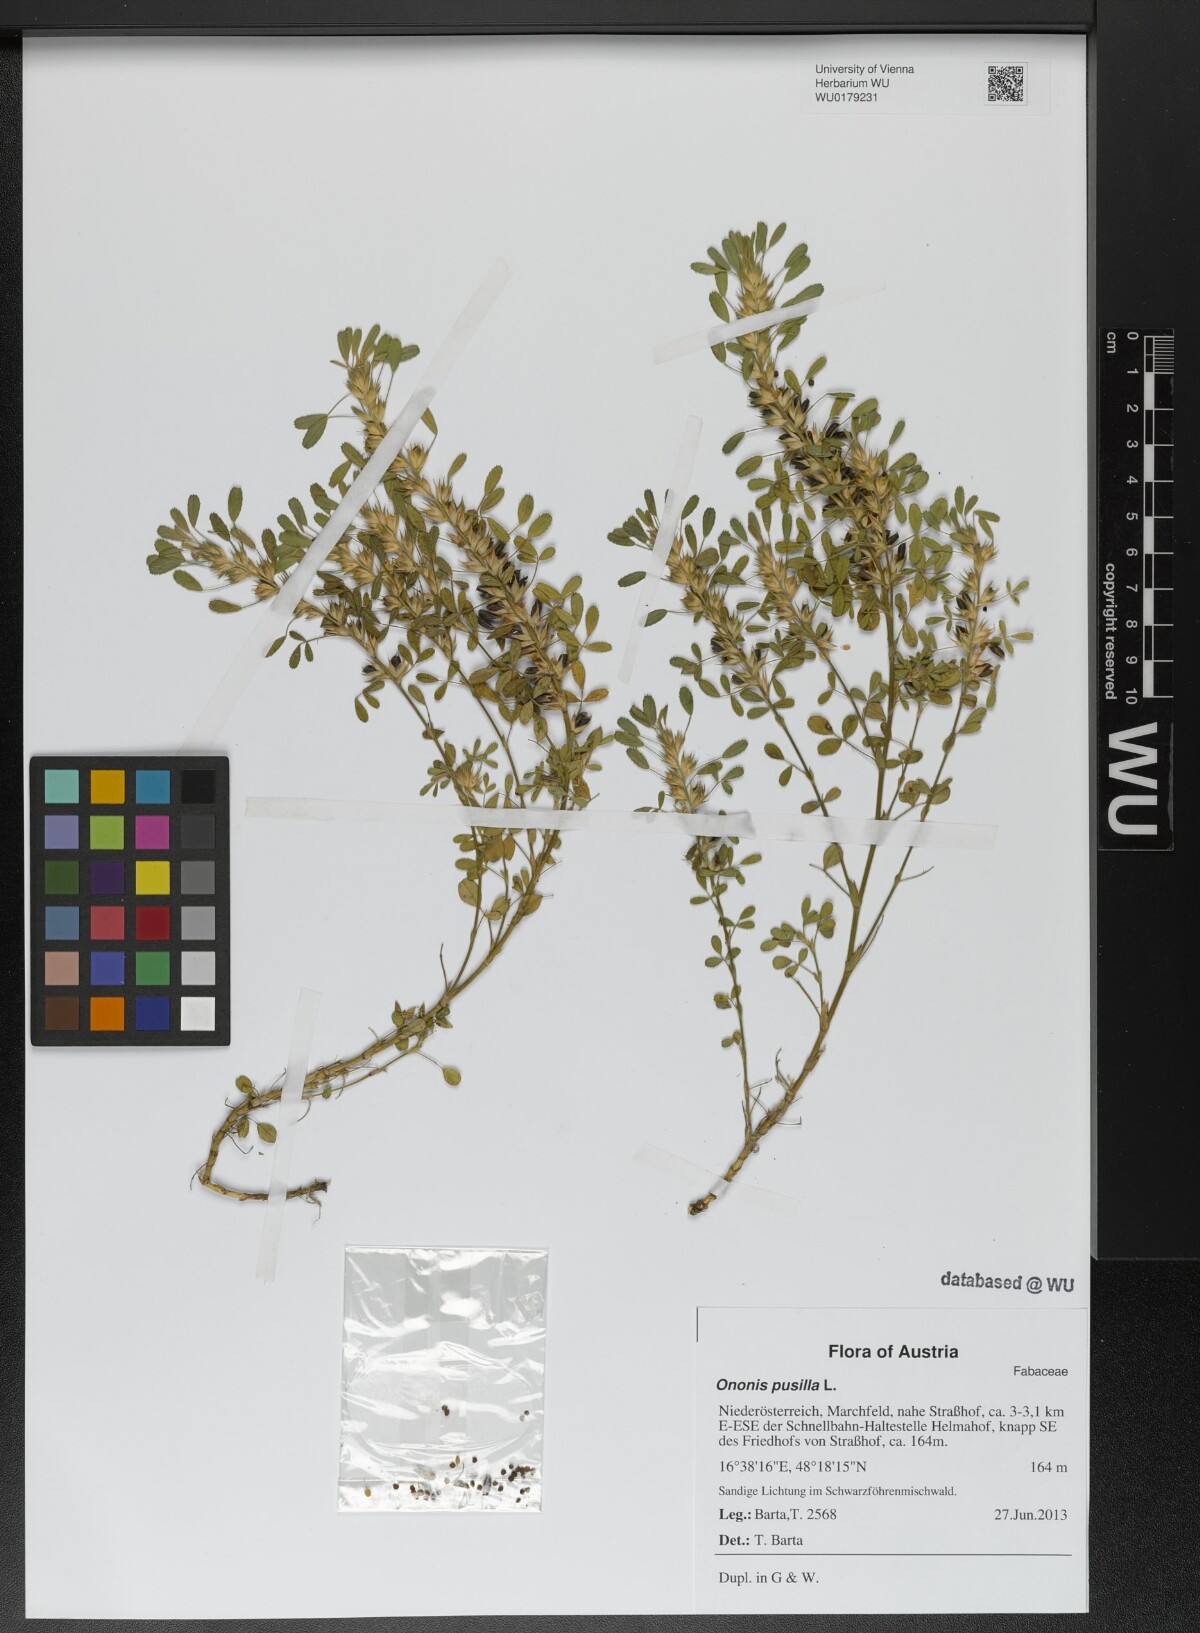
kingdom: Plantae
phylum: Tracheophyta
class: Magnoliopsida
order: Fabales
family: Fabaceae
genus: Ononis
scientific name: Ononis pusilla
